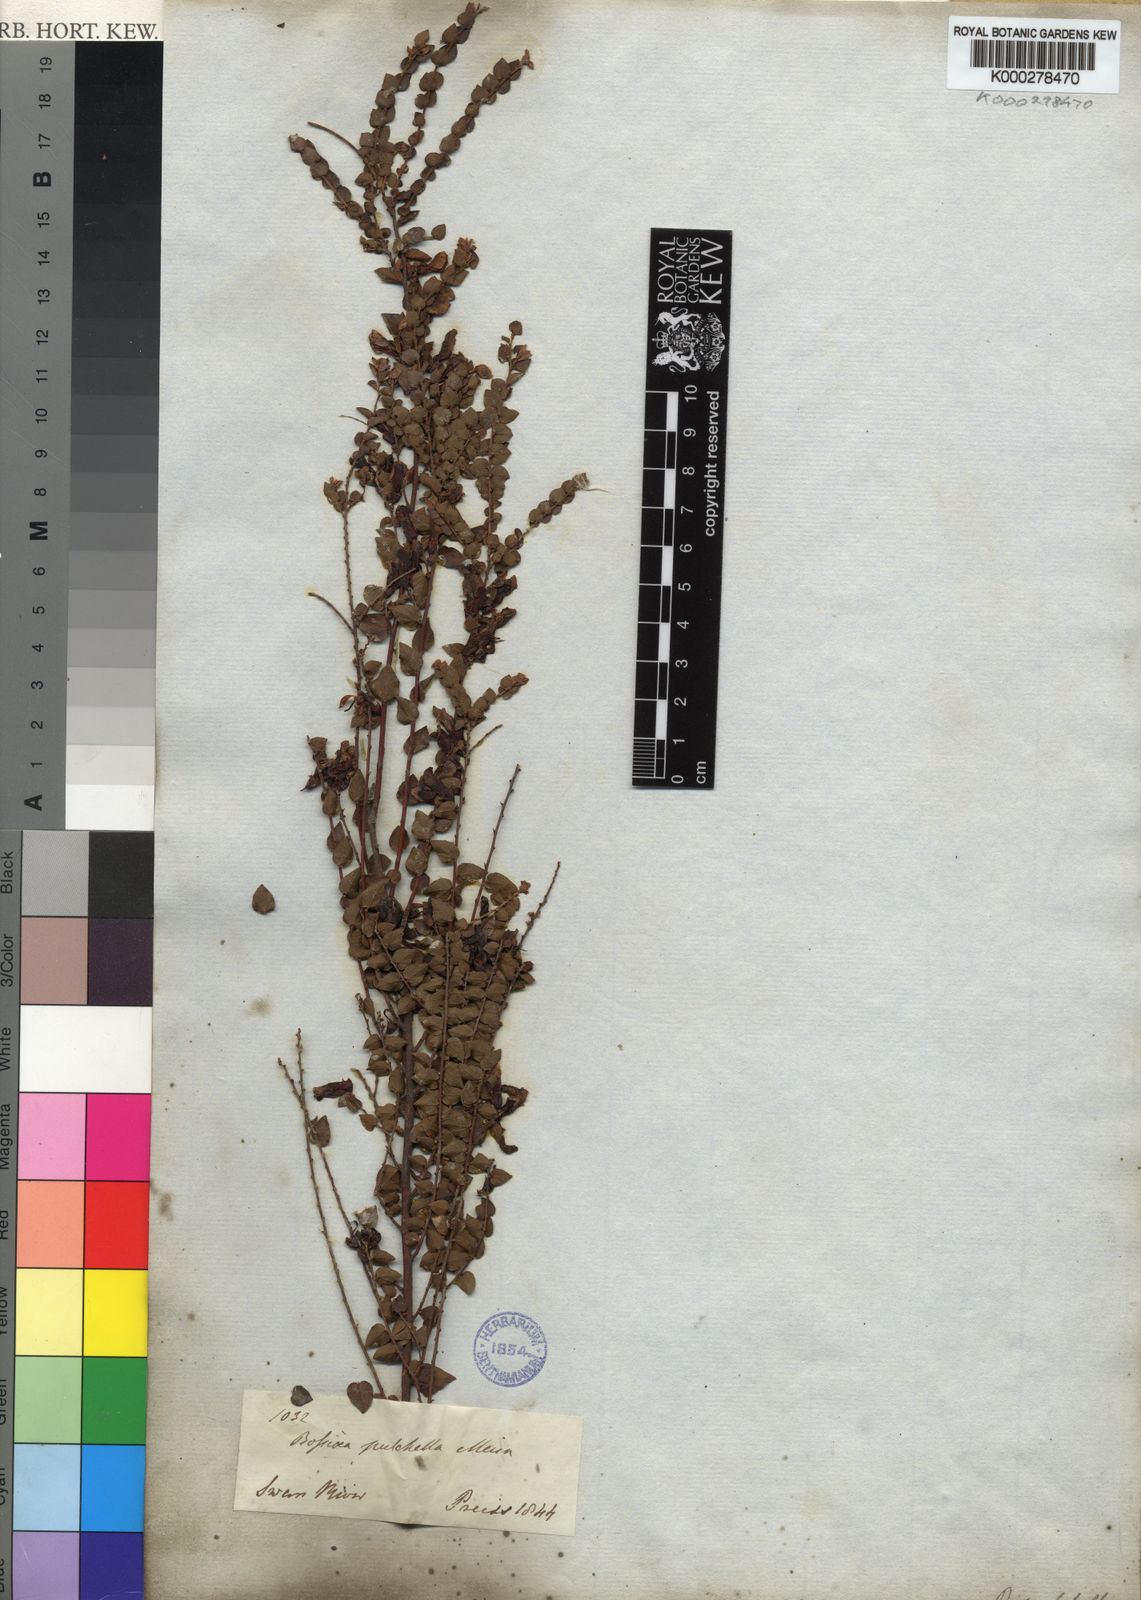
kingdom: Plantae
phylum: Tracheophyta
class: Magnoliopsida
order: Fabales
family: Fabaceae
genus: Bossiaea
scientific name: Bossiaea pulchella
